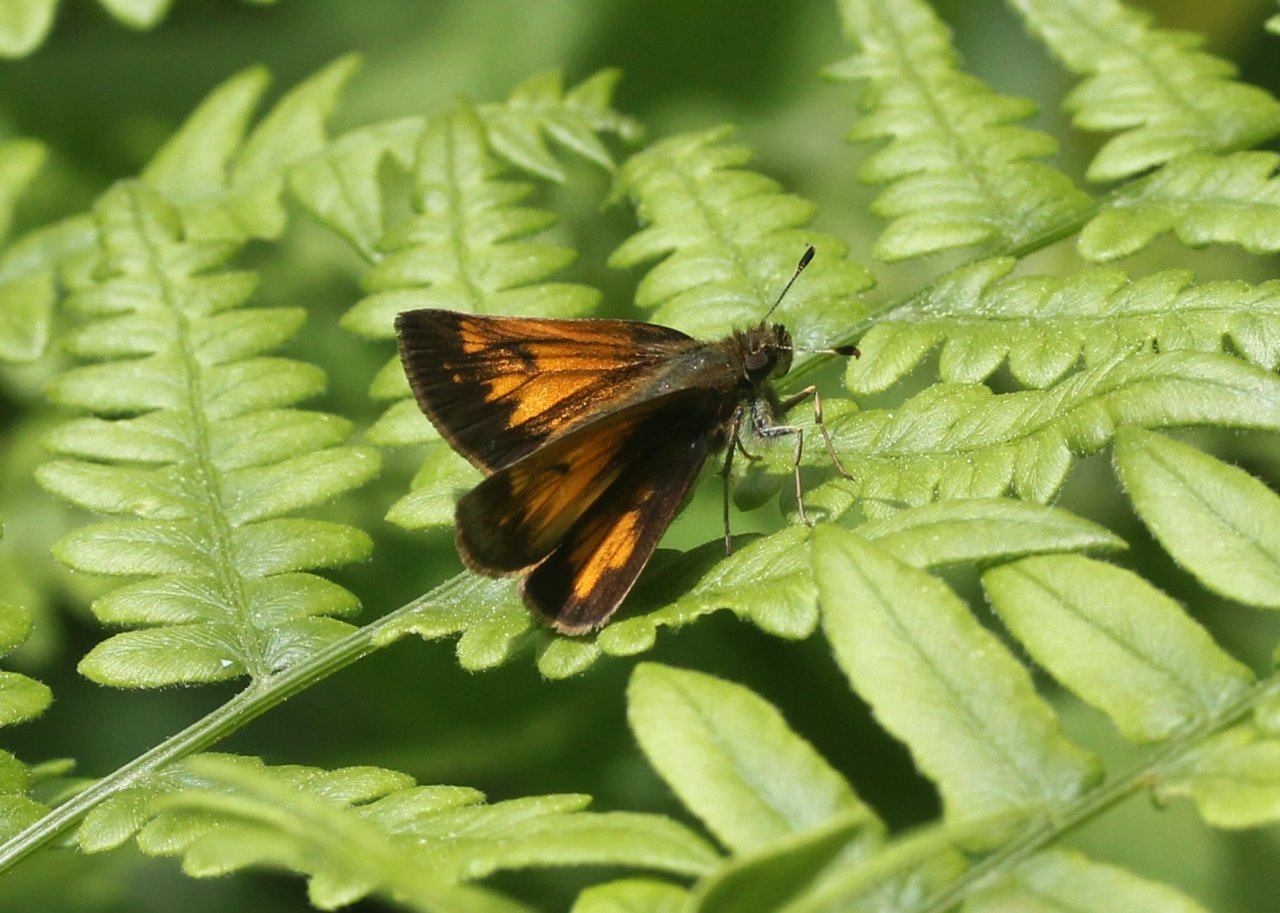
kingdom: Animalia
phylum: Arthropoda
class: Insecta
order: Lepidoptera
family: Hesperiidae
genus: Lon
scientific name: Lon hobomok
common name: Hobomok Skipper
